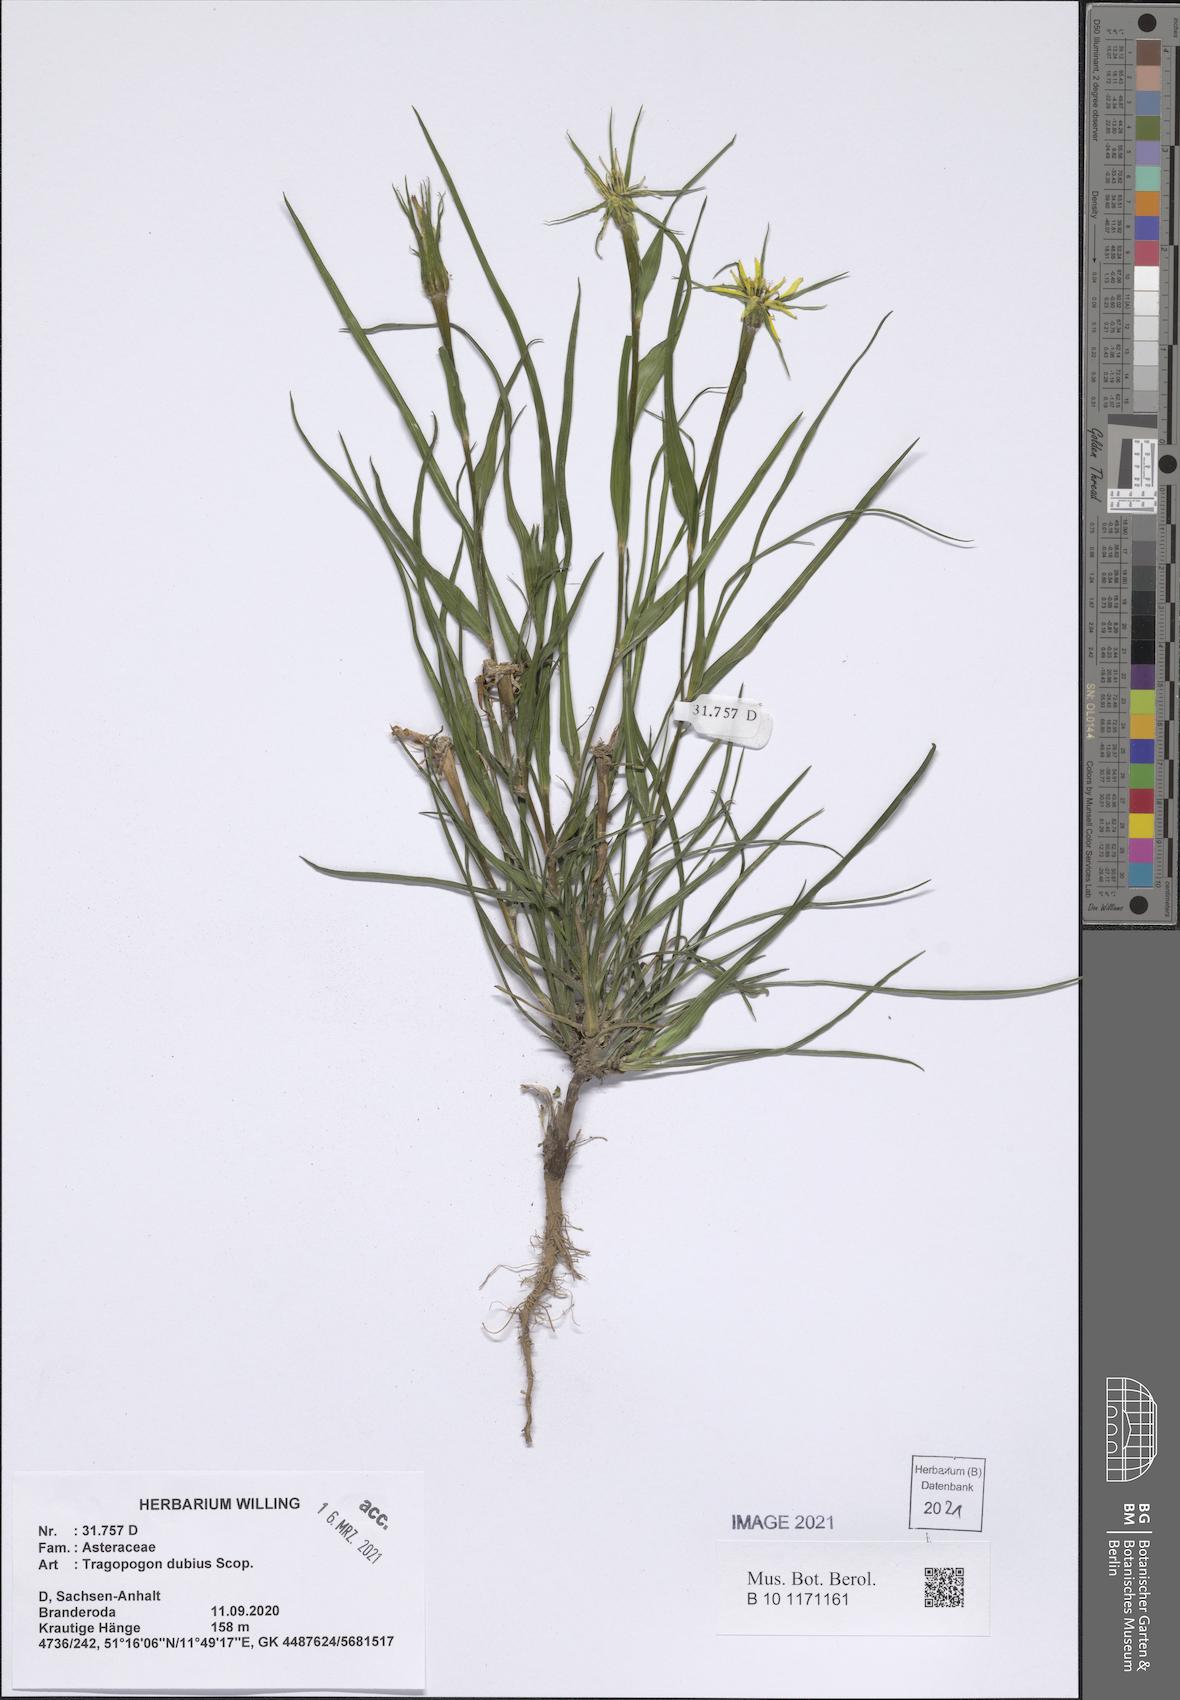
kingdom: Plantae
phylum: Tracheophyta
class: Magnoliopsida
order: Asterales
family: Asteraceae
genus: Tragopogon
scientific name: Tragopogon dubius
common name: Yellow salsify
